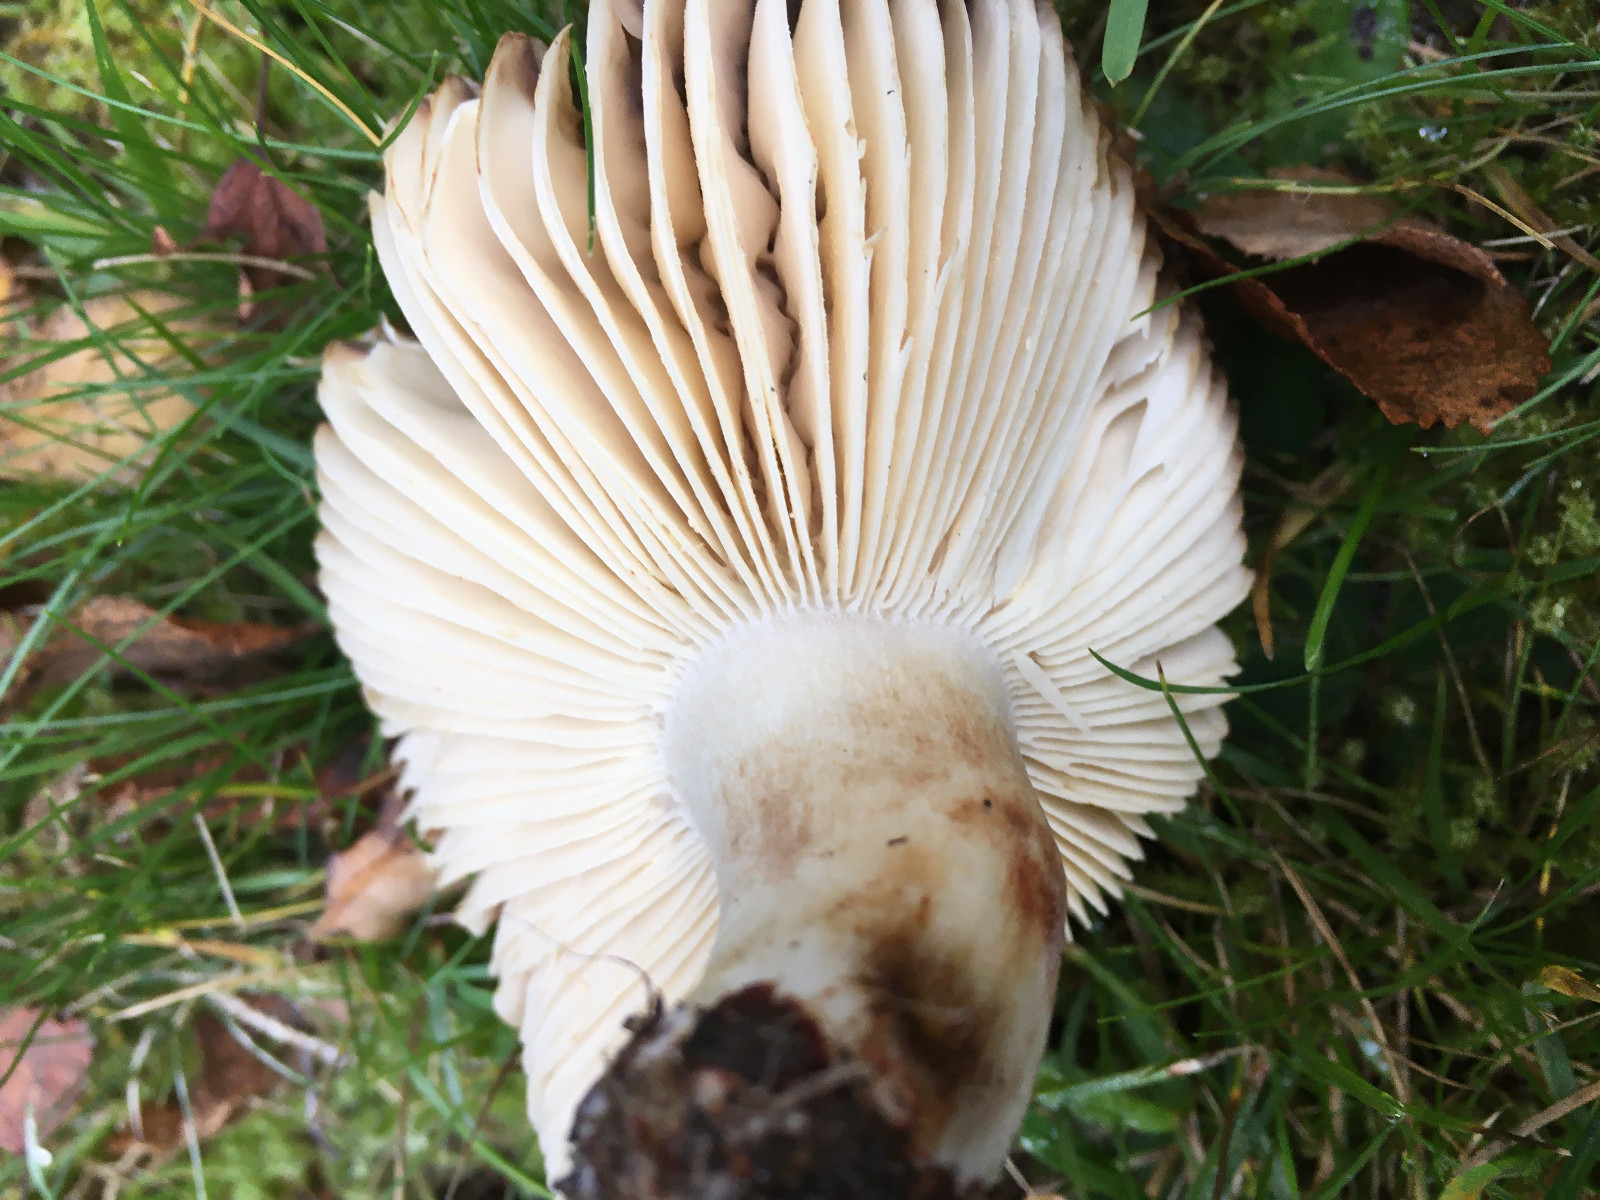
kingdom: Fungi
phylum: Basidiomycota
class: Agaricomycetes
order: Russulales
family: Russulaceae
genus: Russula
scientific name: Russula
